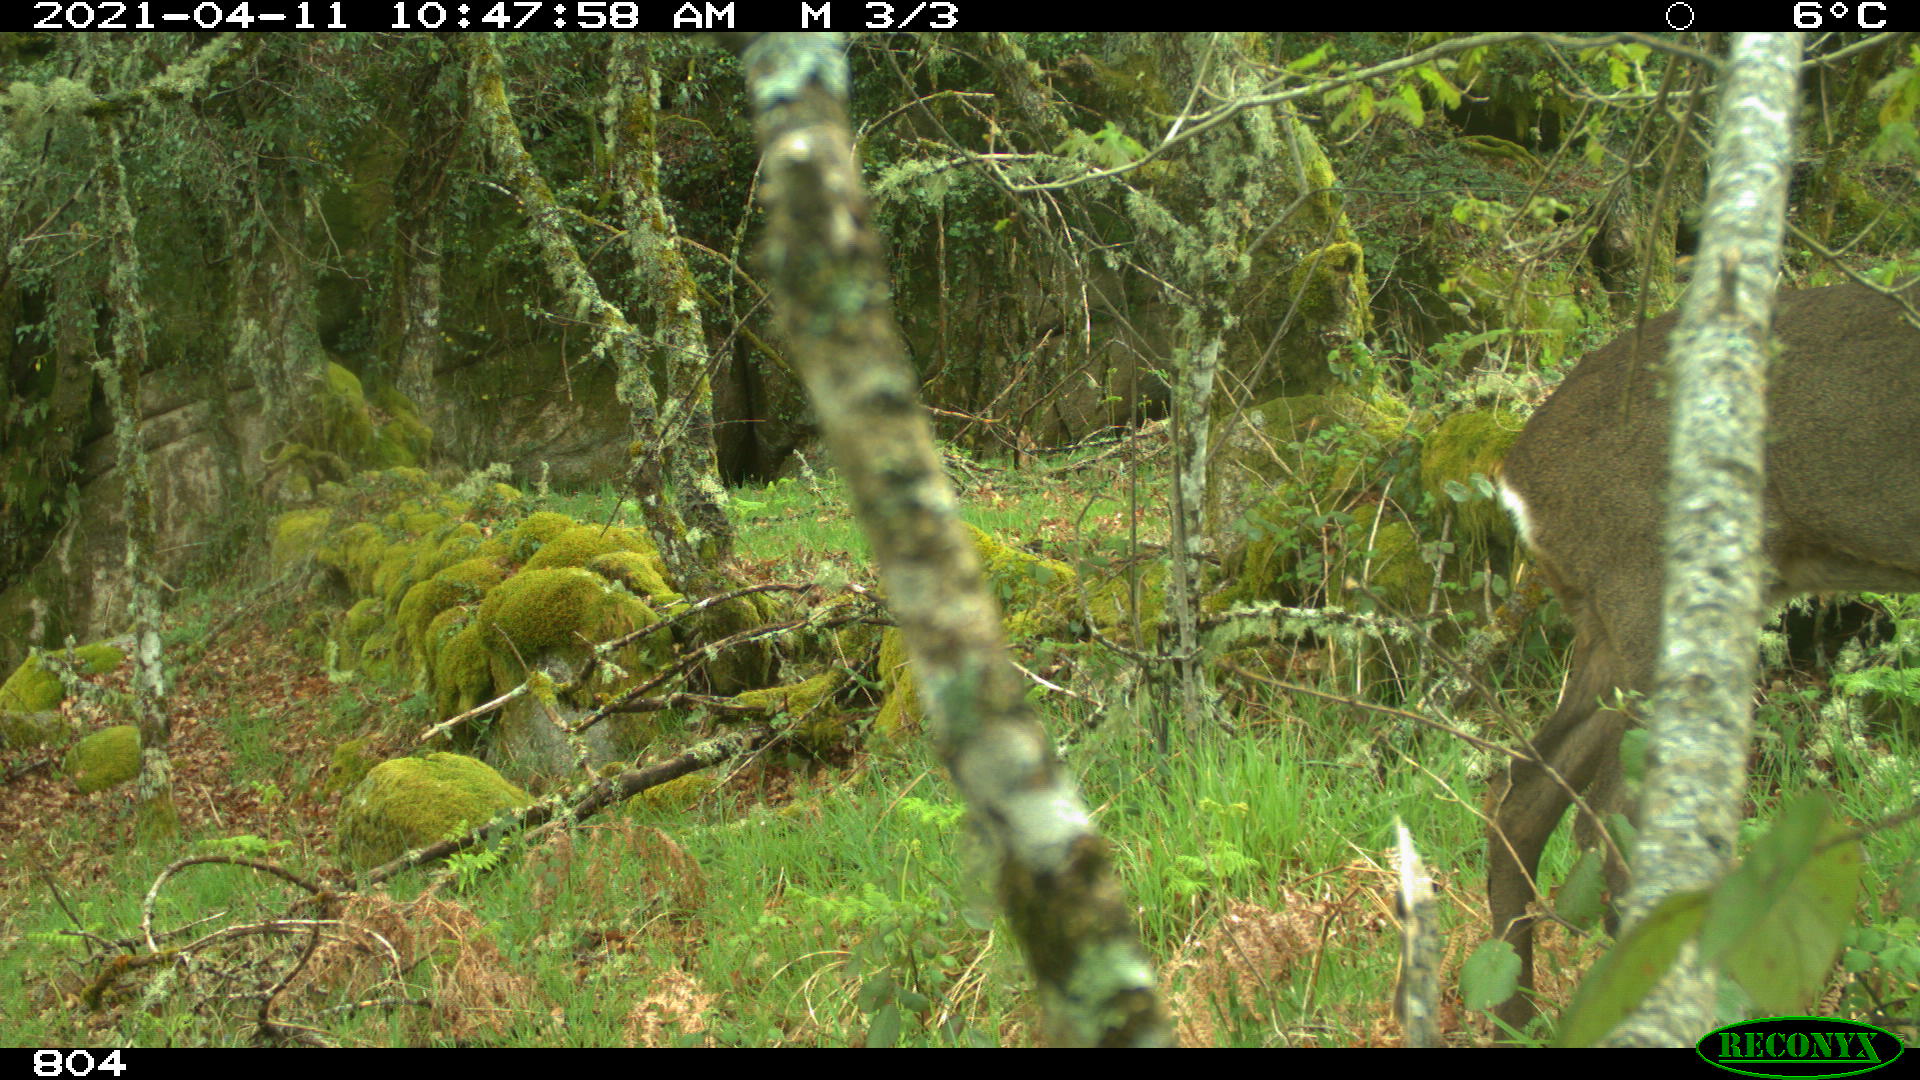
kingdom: Animalia
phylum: Chordata
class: Mammalia
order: Artiodactyla
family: Cervidae
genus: Capreolus
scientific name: Capreolus capreolus
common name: Western roe deer
